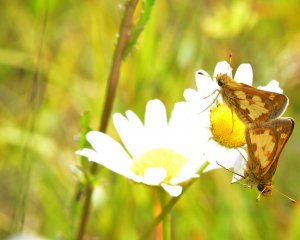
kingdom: Animalia
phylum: Arthropoda
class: Insecta
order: Lepidoptera
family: Hesperiidae
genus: Polites
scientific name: Polites coras
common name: Peck's Skipper
